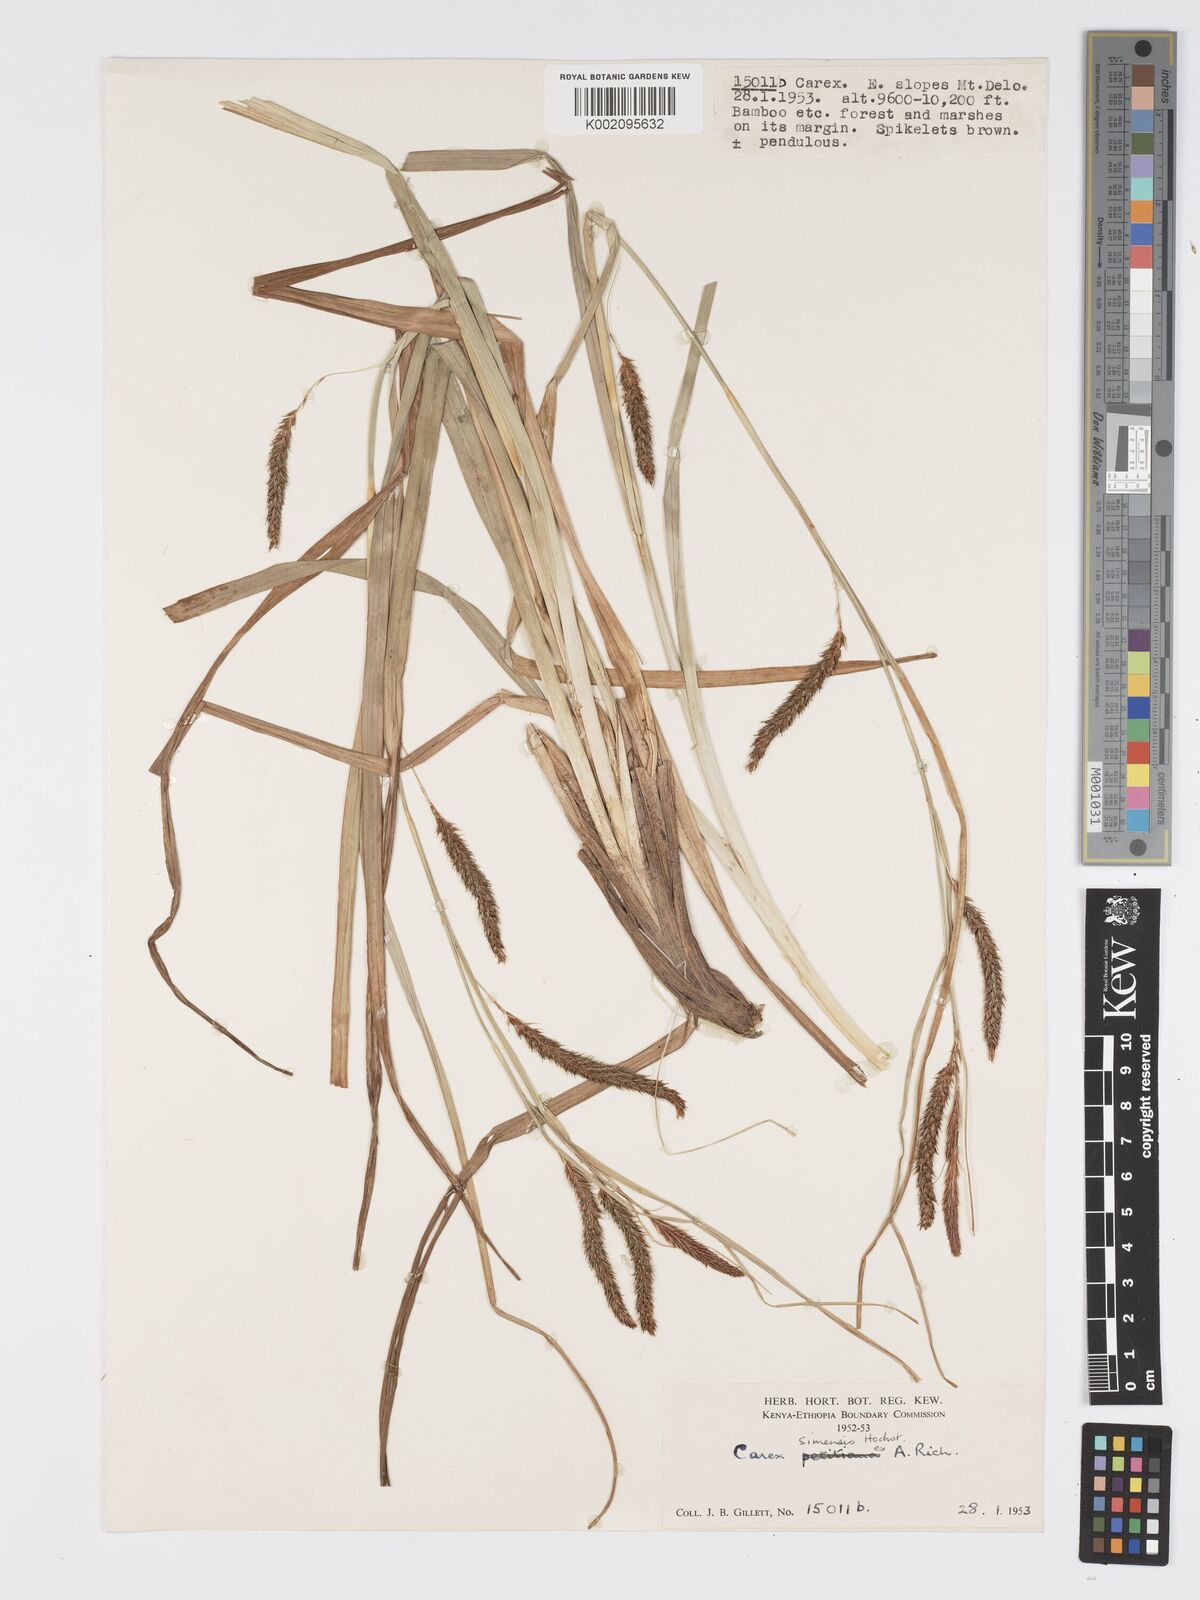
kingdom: Plantae
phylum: Tracheophyta
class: Liliopsida
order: Poales
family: Cyperaceae
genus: Carex
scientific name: Carex simensis
